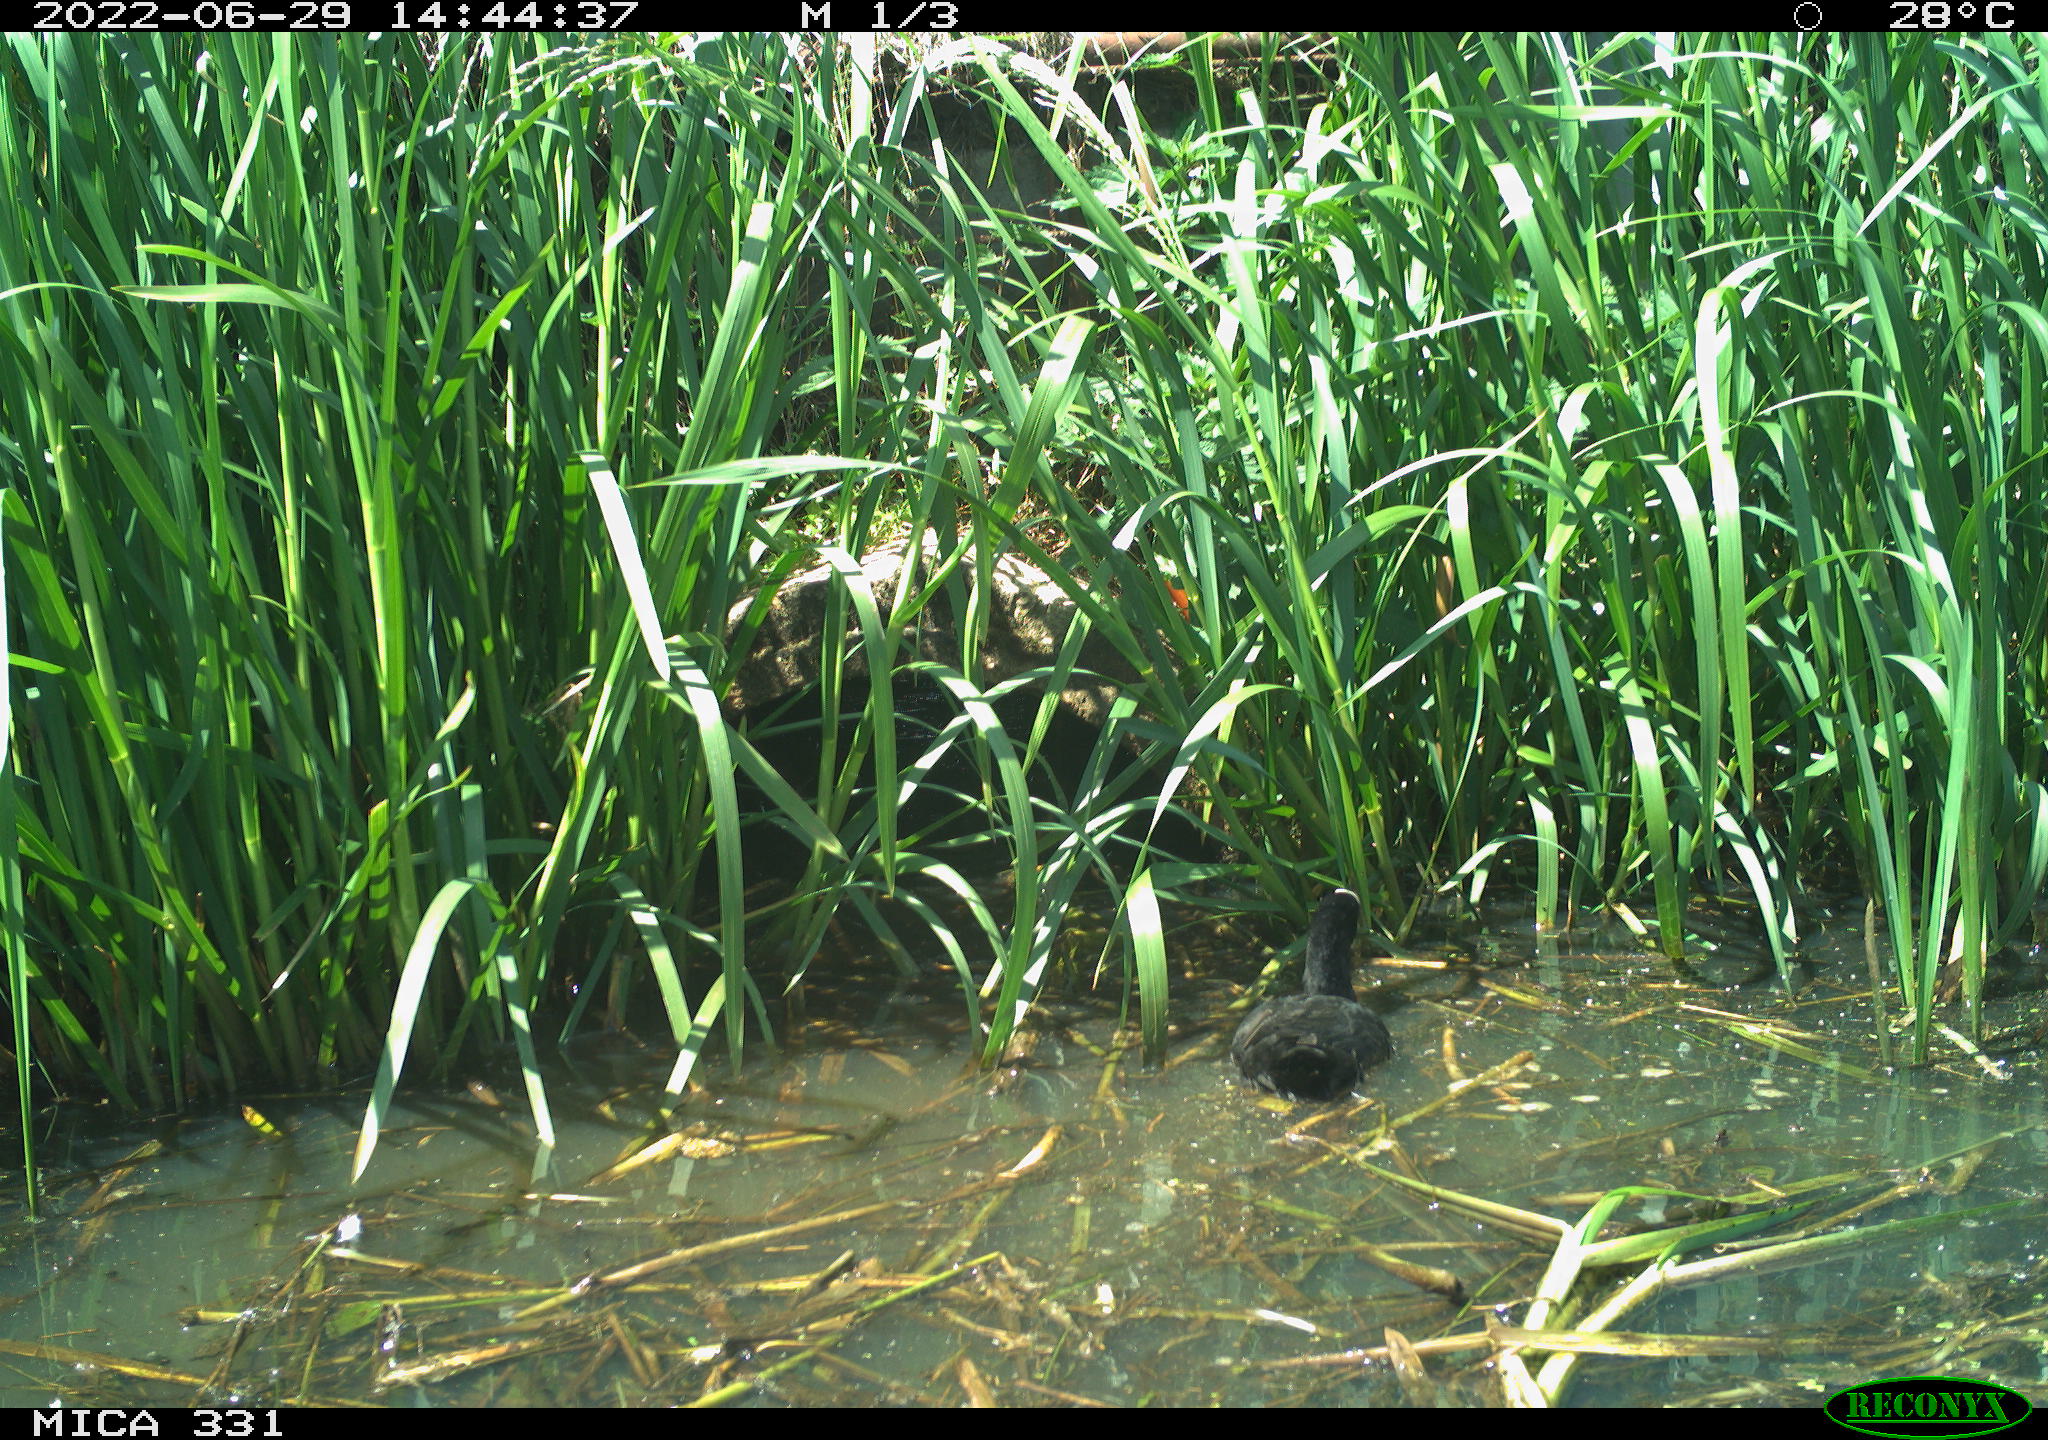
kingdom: Animalia
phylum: Chordata
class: Aves
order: Gruiformes
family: Rallidae
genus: Fulica
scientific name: Fulica atra
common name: Eurasian coot
